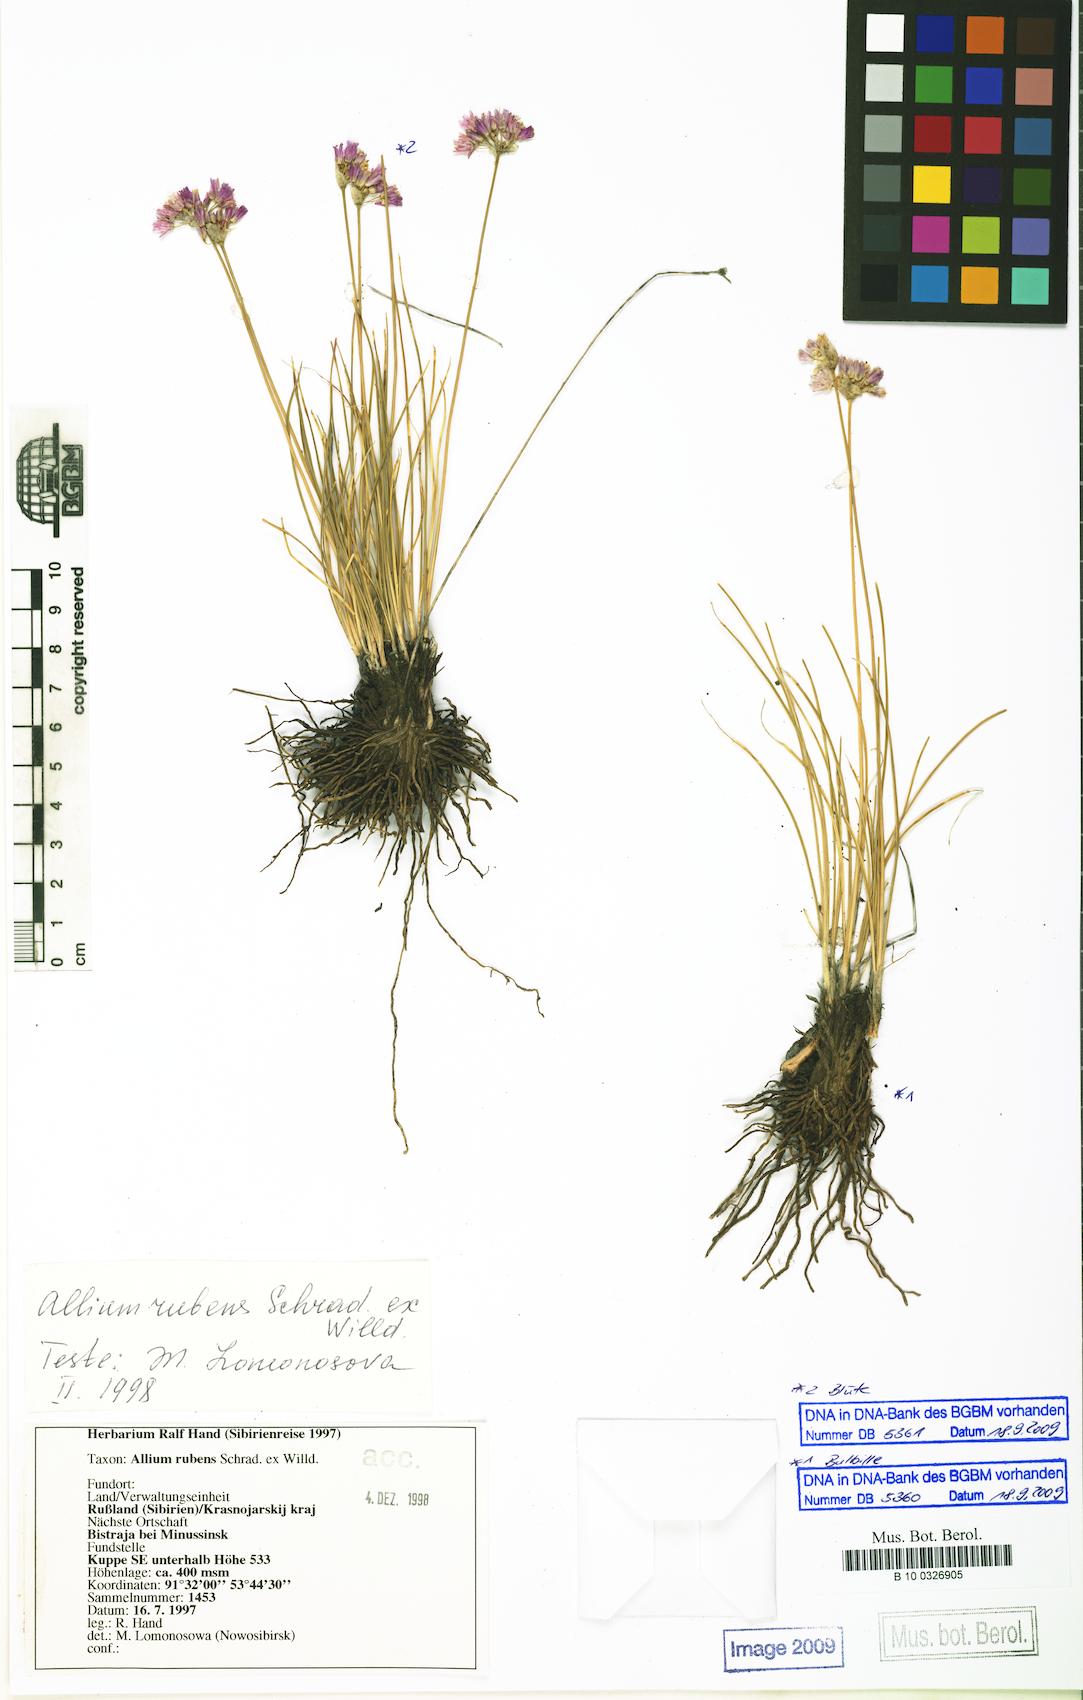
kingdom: Plantae
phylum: Tracheophyta
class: Liliopsida
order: Asparagales
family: Amaryllidaceae
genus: Allium
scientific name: Allium rubens
